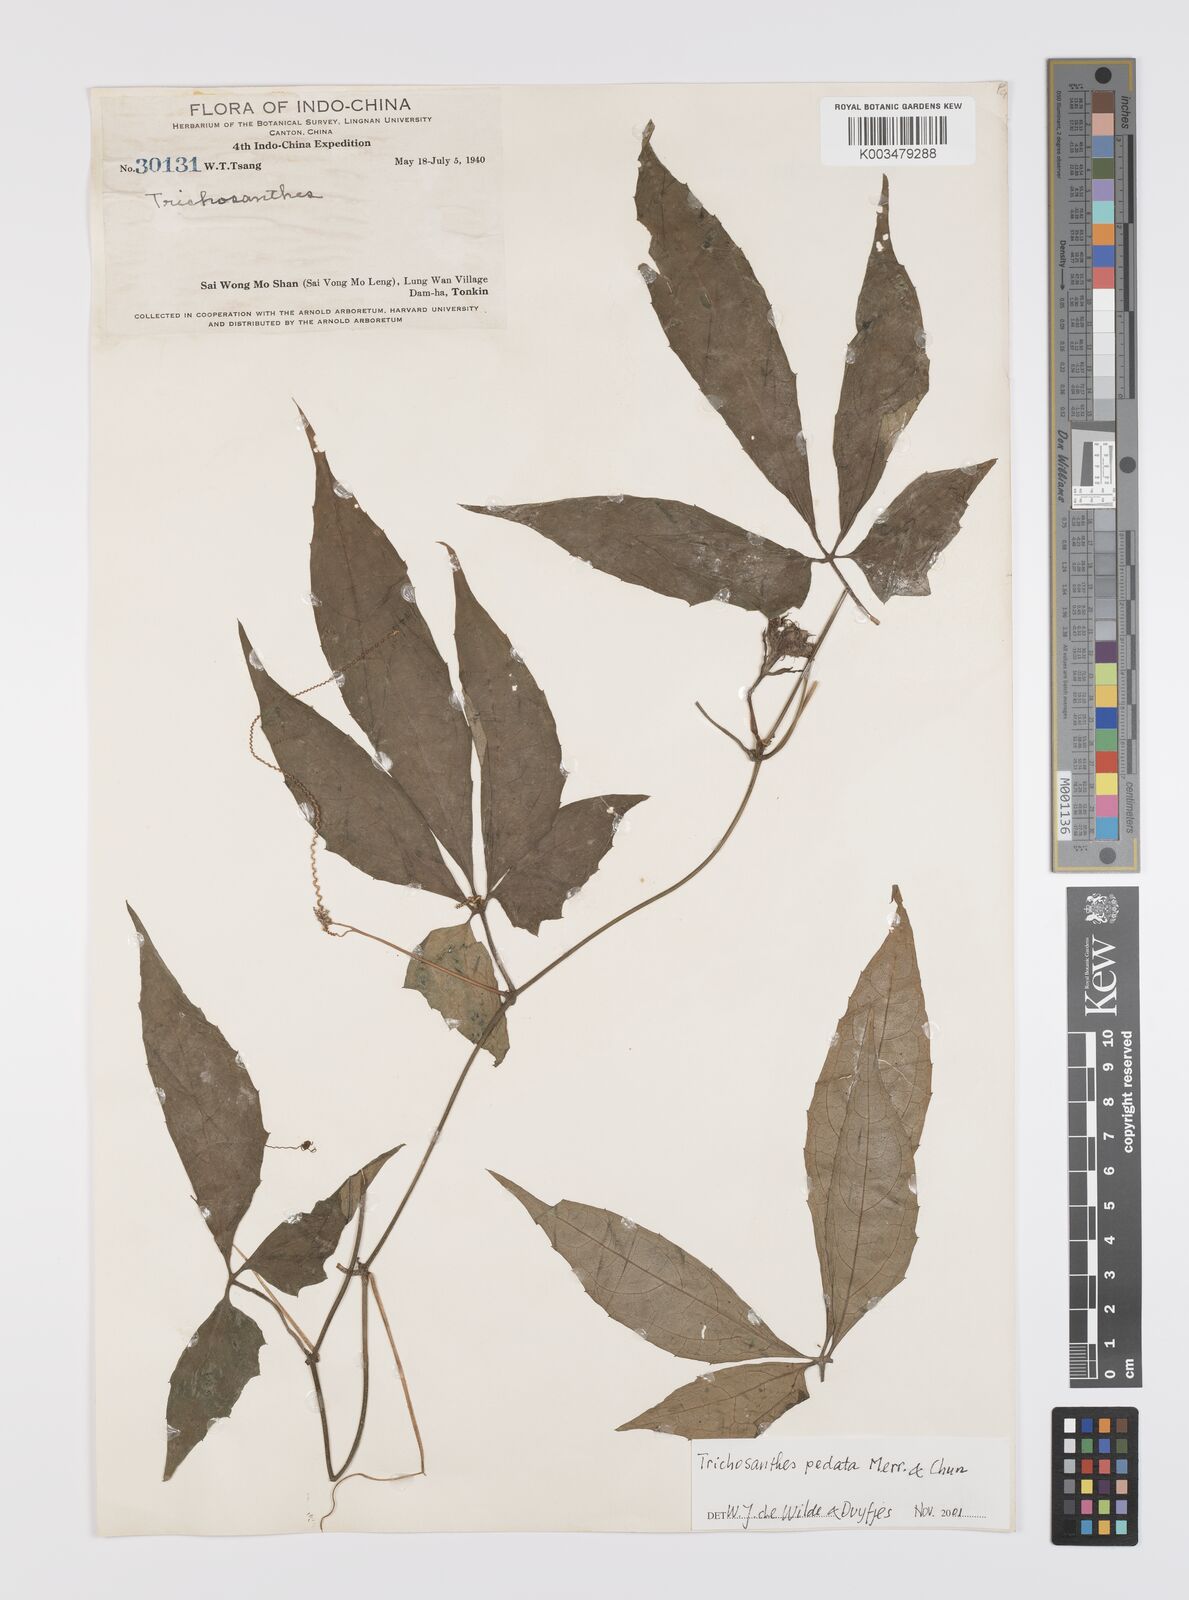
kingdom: Plantae
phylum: Tracheophyta
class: Magnoliopsida
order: Cucurbitales
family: Cucurbitaceae
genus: Trichosanthes
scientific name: Trichosanthes pedata
